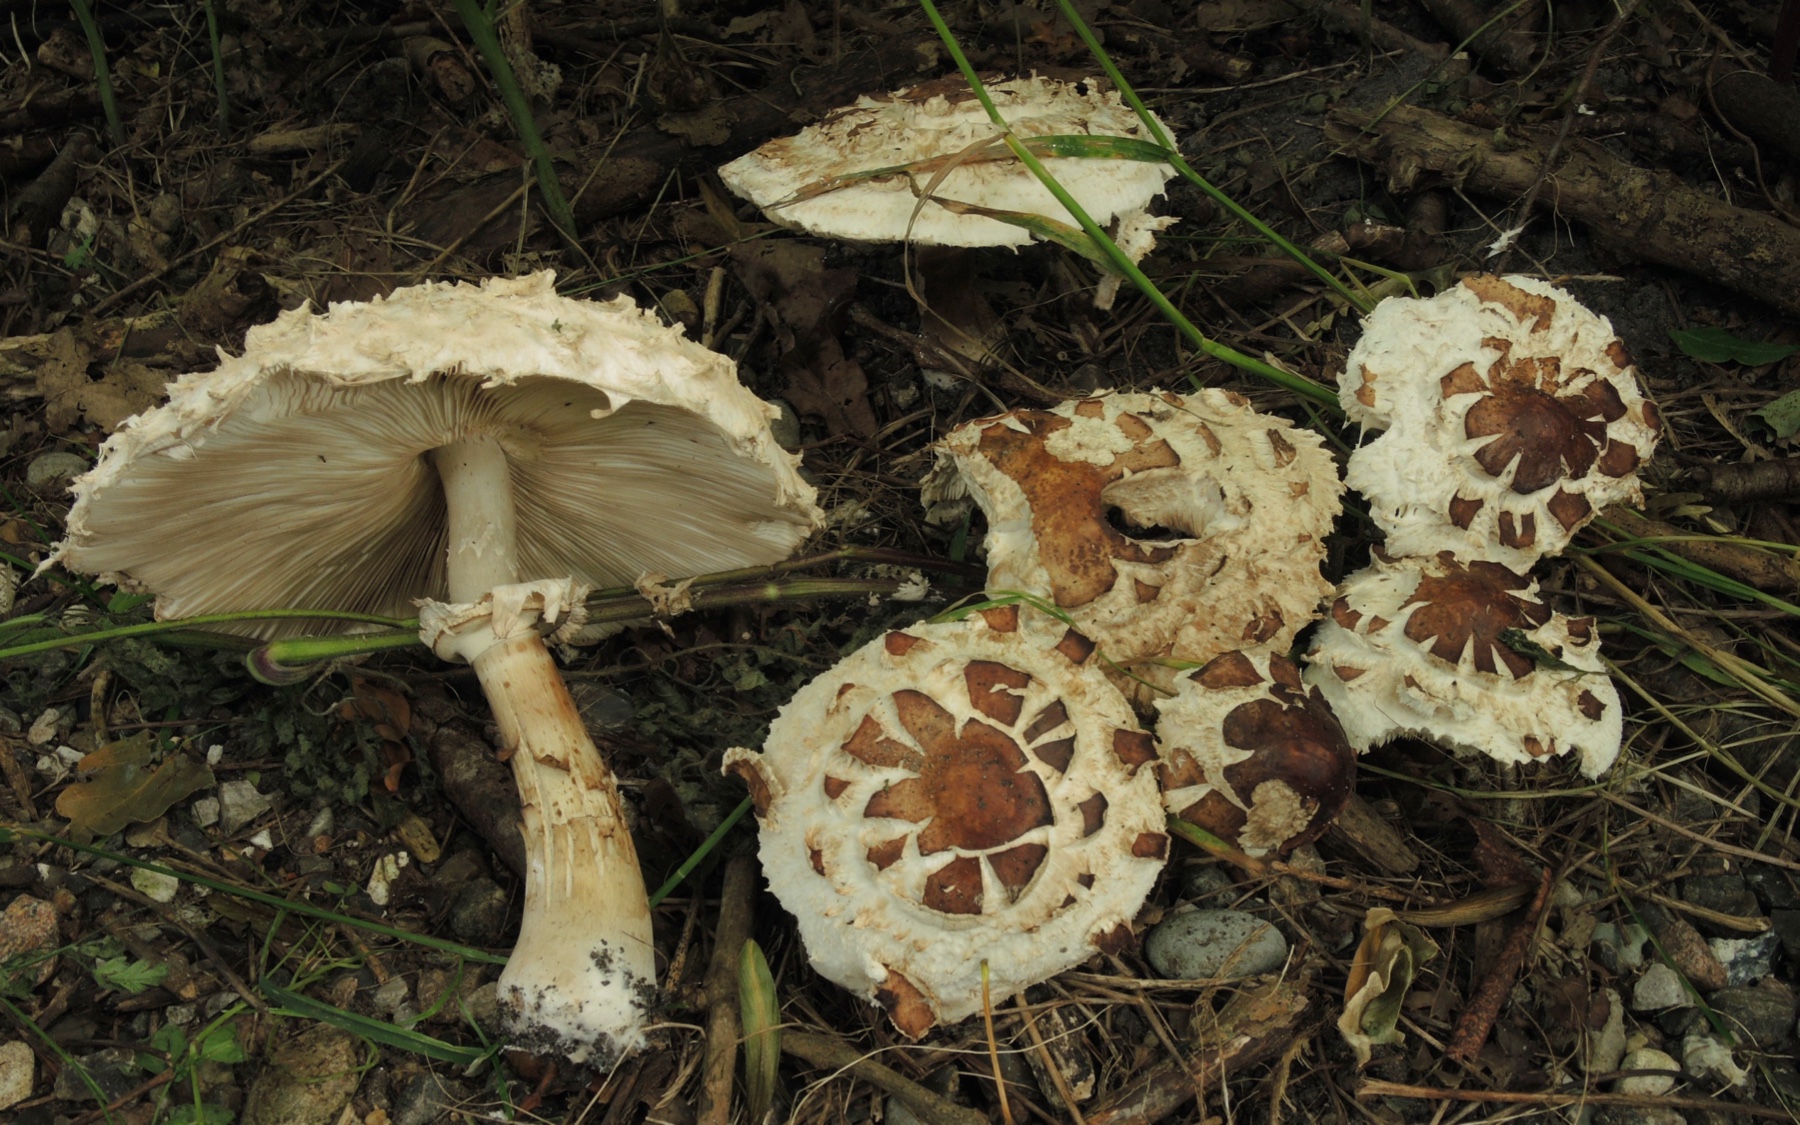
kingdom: Fungi
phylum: Basidiomycota
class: Agaricomycetes
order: Agaricales
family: Agaricaceae
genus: Chlorophyllum
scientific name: Chlorophyllum rhacodes
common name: ægte rabarberhat
